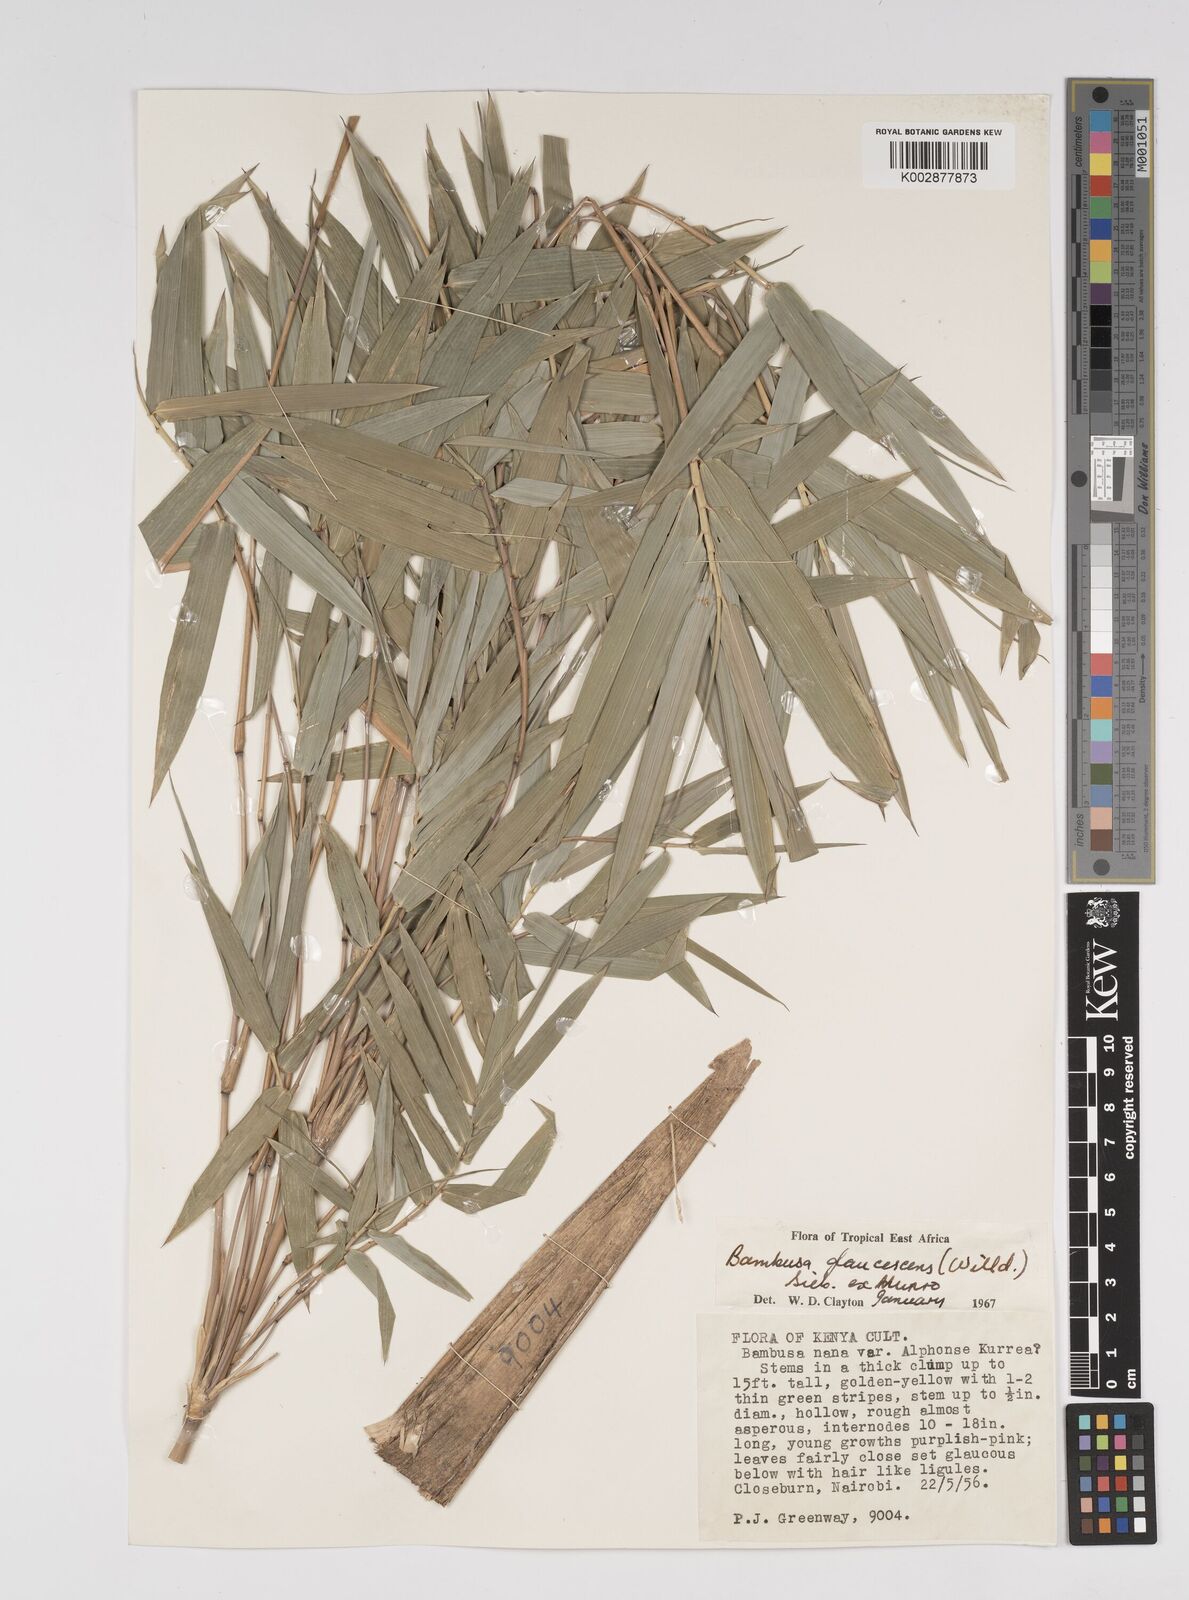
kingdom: Plantae
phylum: Tracheophyta
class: Liliopsida
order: Poales
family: Poaceae
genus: Bambusa
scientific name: Bambusa multiplex
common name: Hedge bamboo
